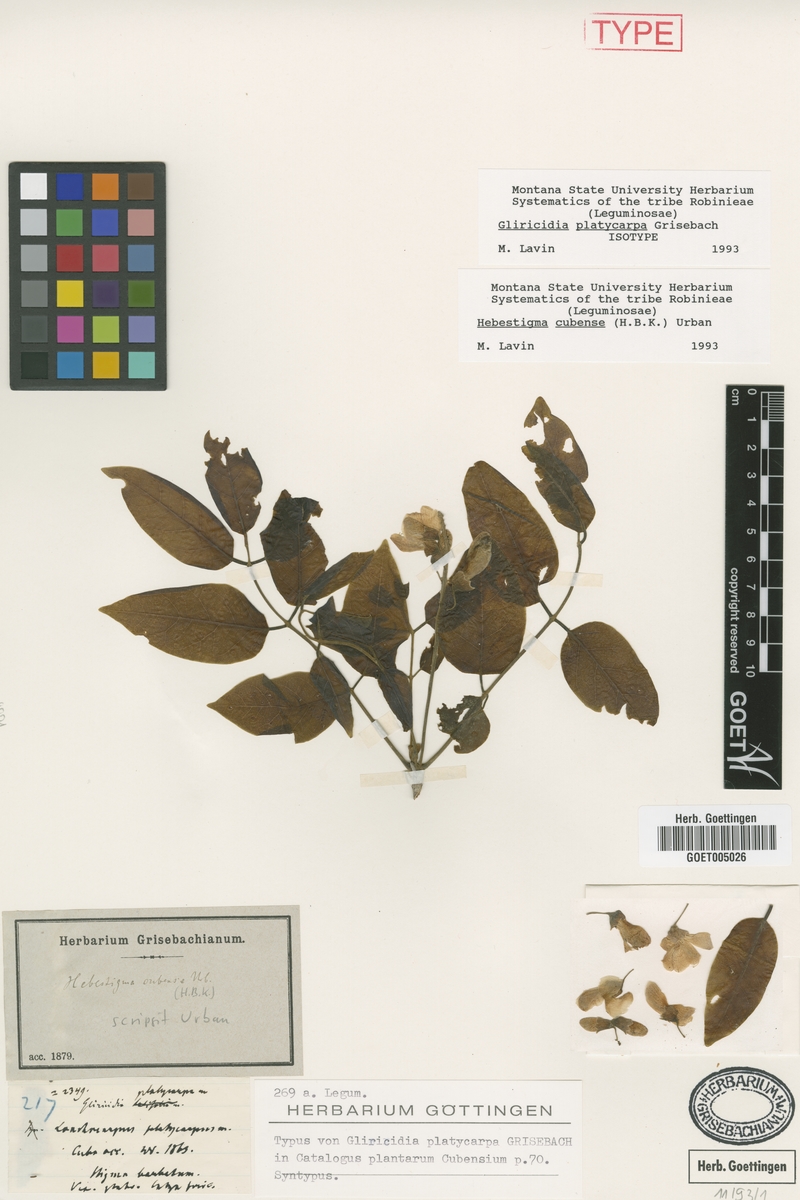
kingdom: Plantae
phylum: Tracheophyta
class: Magnoliopsida
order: Fabales
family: Fabaceae
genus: Hebestigma
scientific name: Hebestigma cubense
